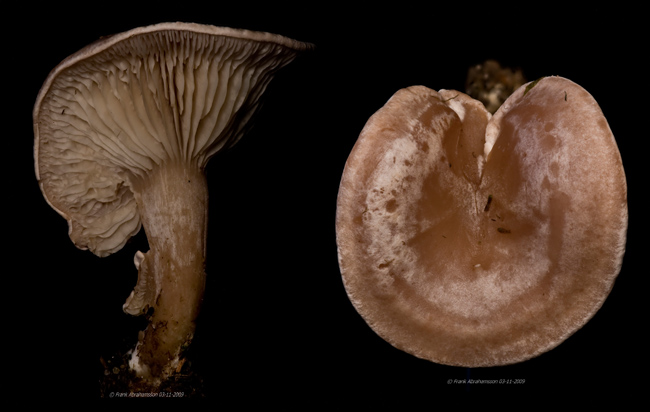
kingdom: Fungi
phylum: Basidiomycota
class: Agaricomycetes
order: Agaricales
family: Tricholomataceae
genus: Clitocybe
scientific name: Clitocybe rivulosa
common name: eng-tragthat
